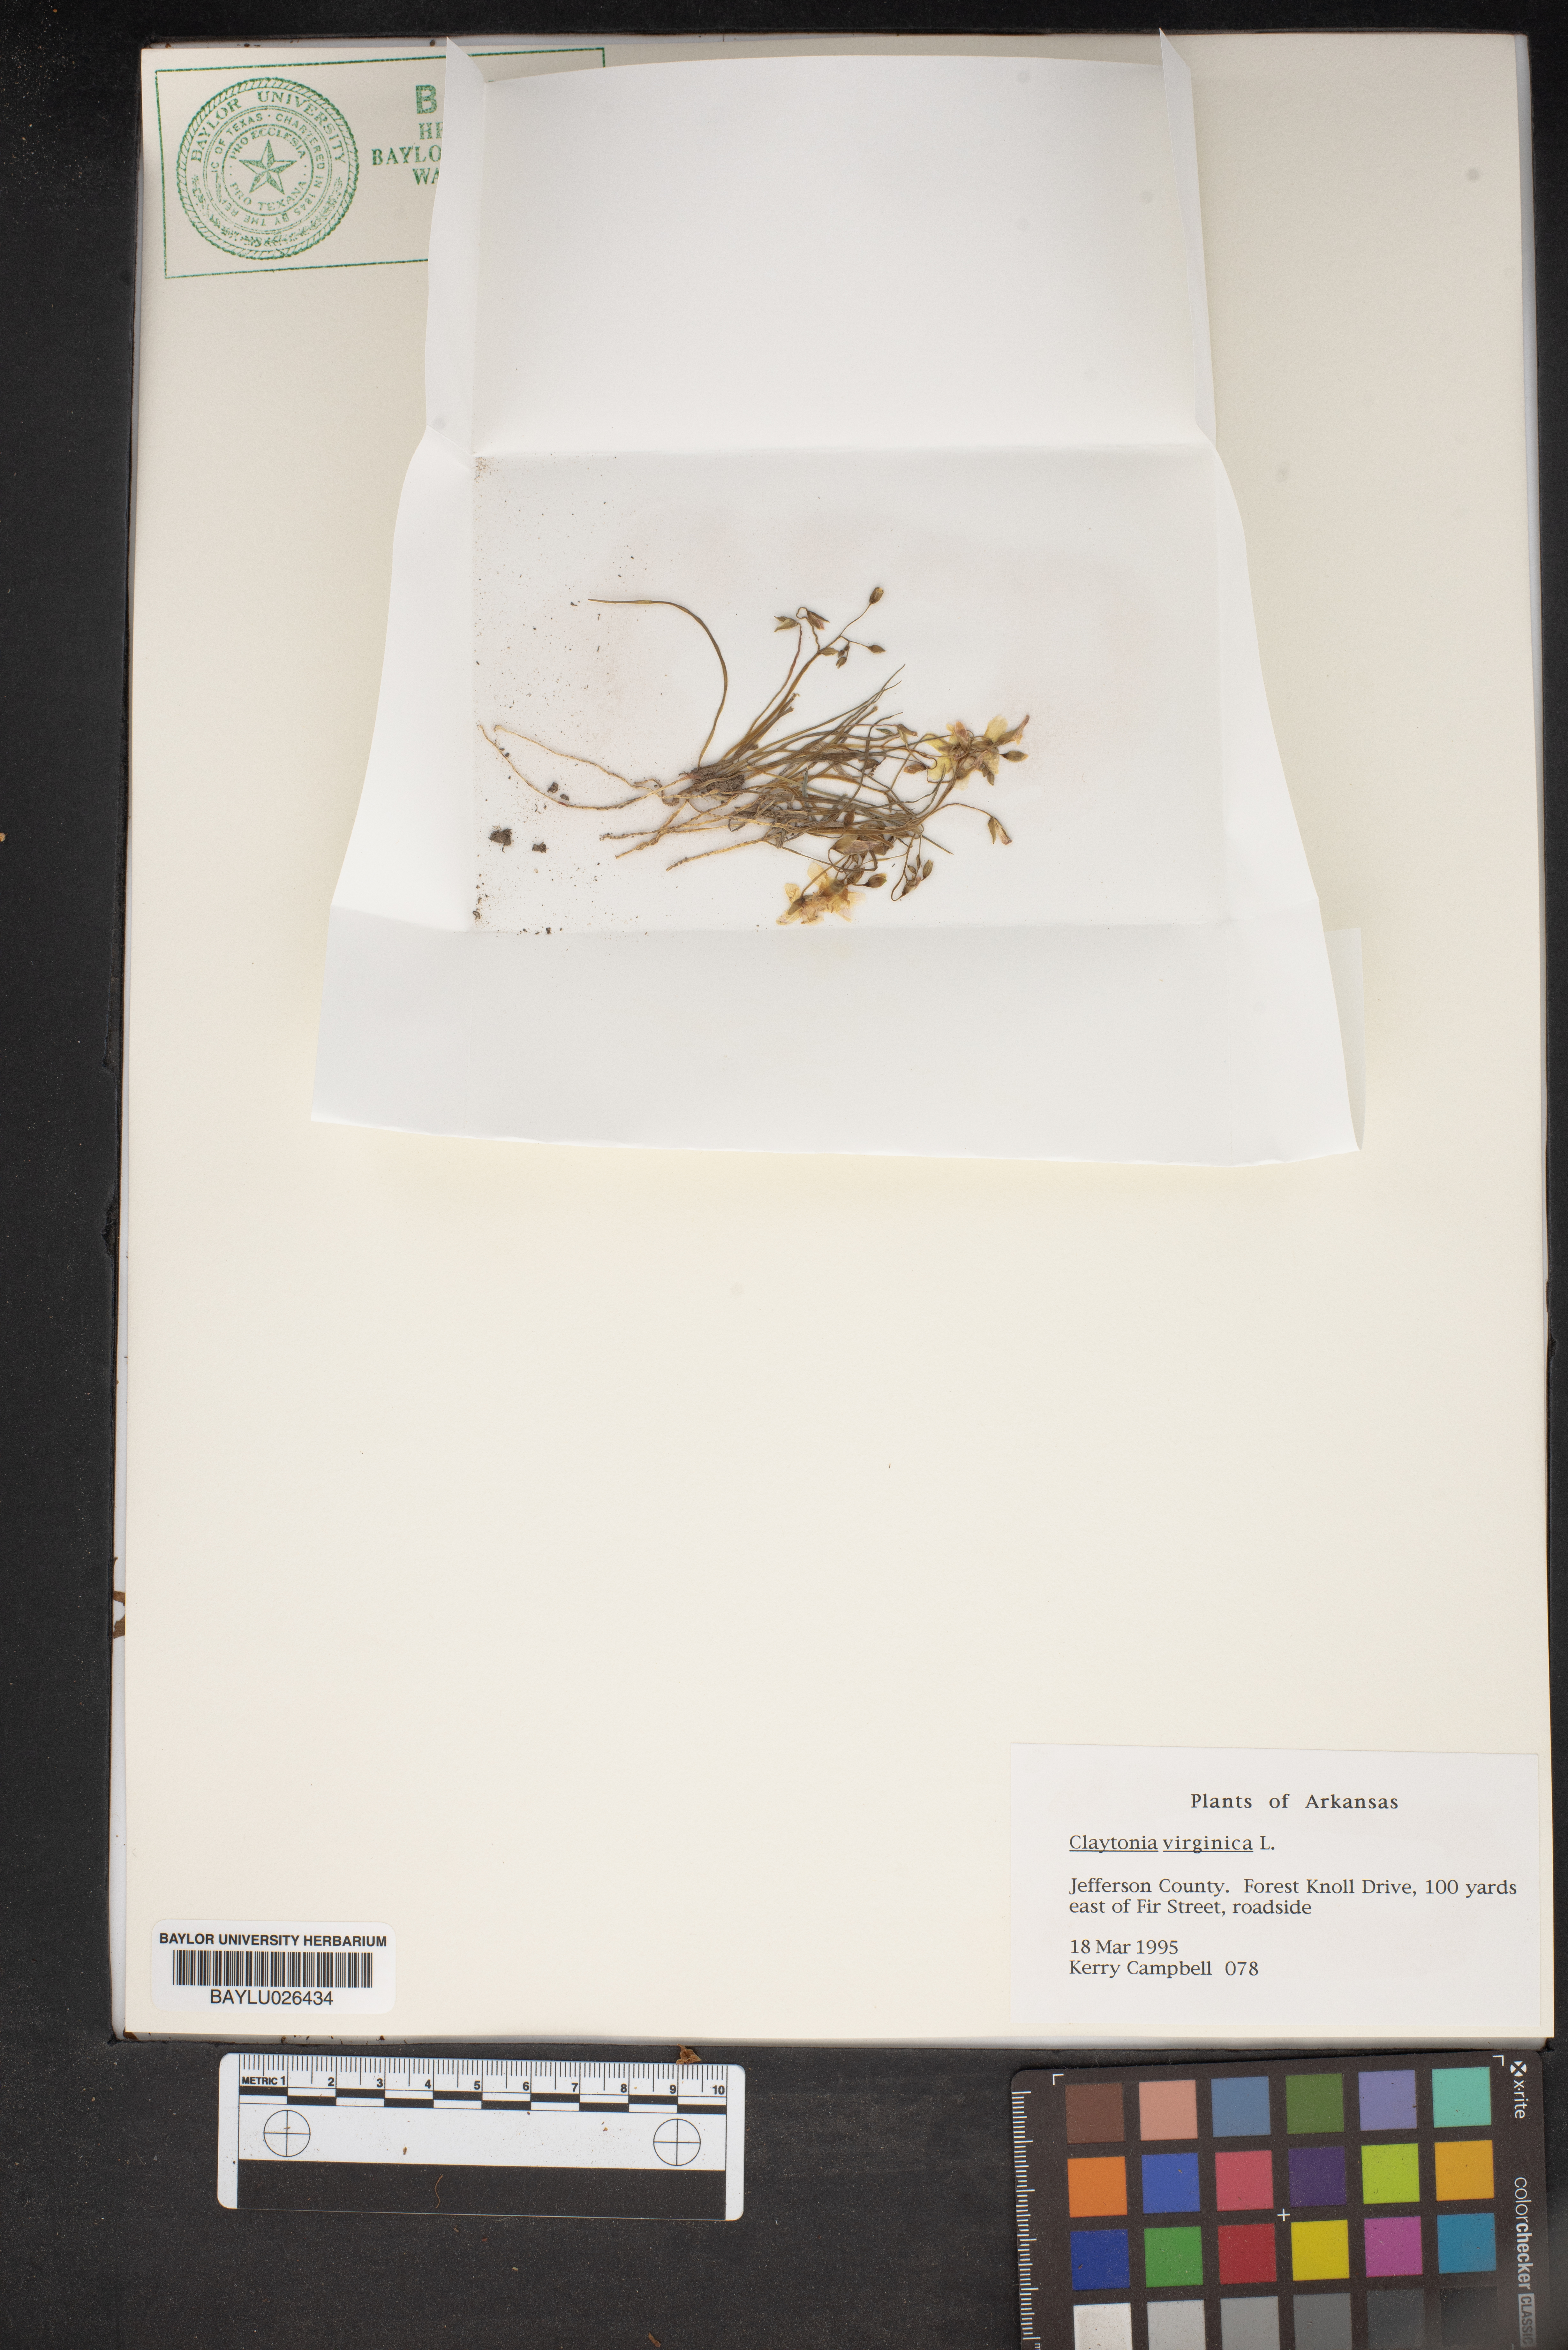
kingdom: Plantae
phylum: Tracheophyta
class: Magnoliopsida
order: Caryophyllales
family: Montiaceae
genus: Claytonia
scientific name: Claytonia virginica
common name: Virginia springbeauty
